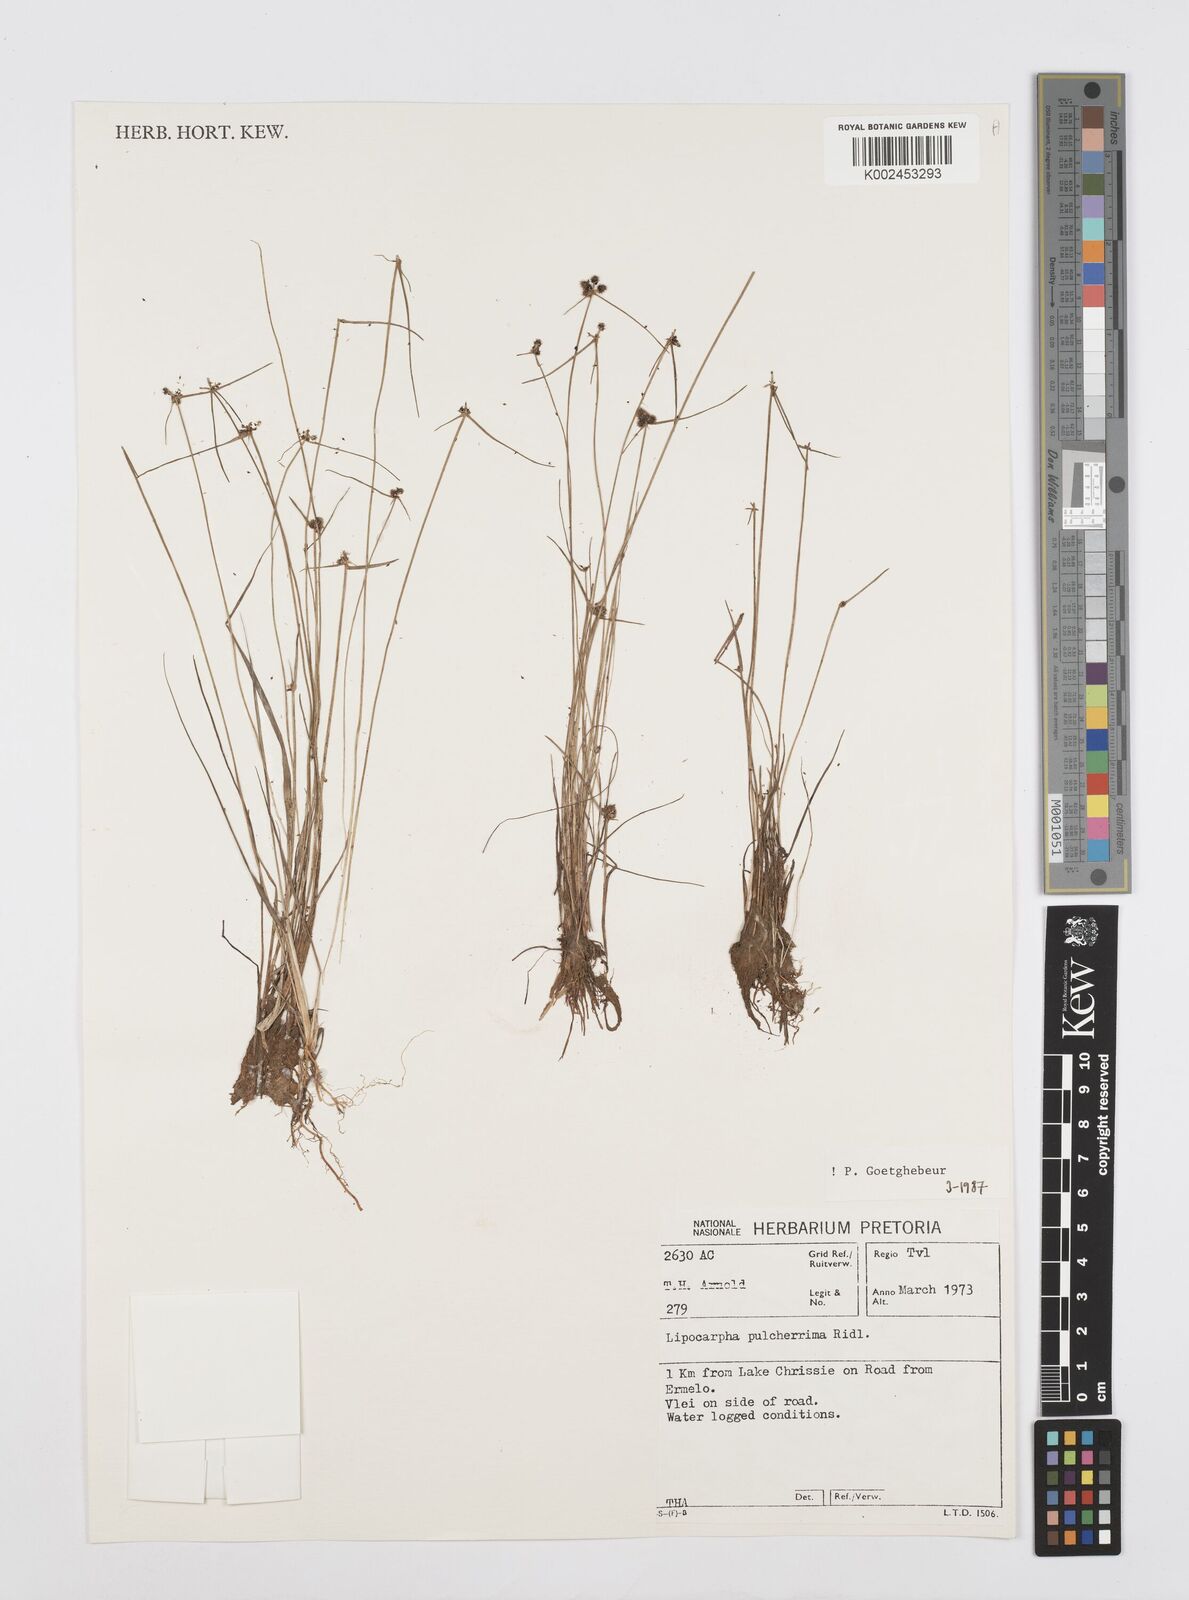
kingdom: Plantae
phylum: Tracheophyta
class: Liliopsida
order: Poales
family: Cyperaceae
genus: Cyperus
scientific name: Cyperus
